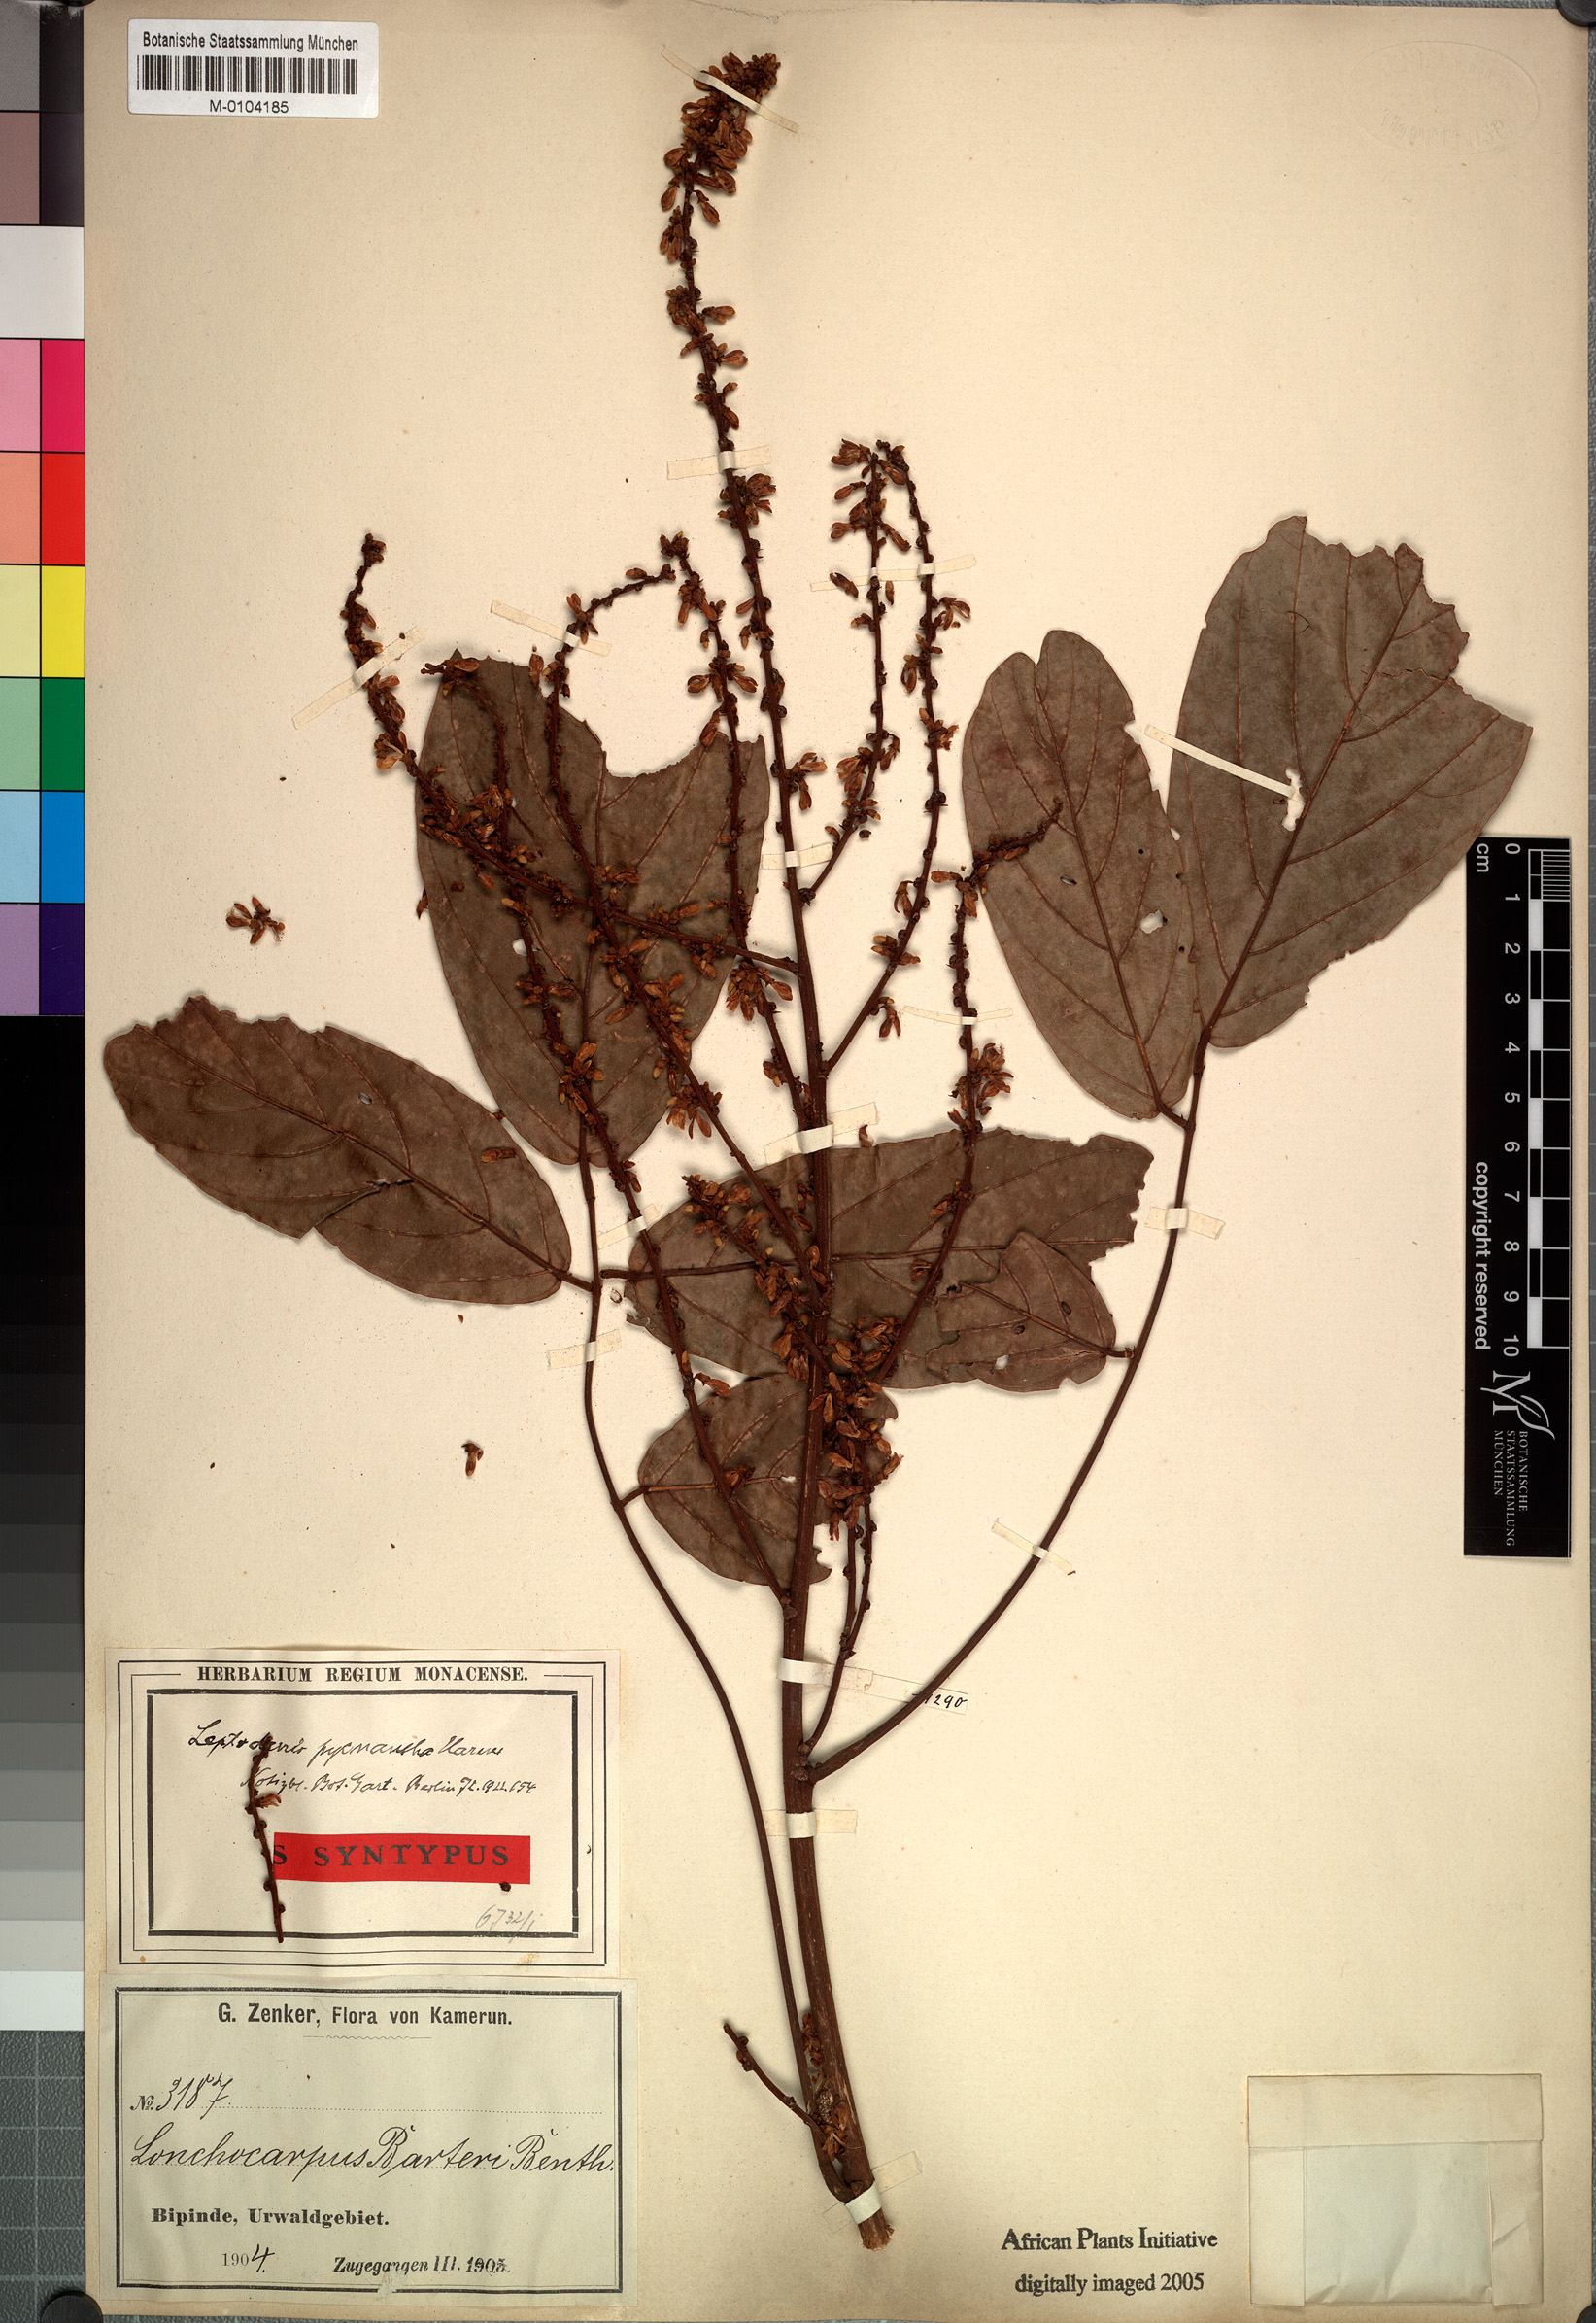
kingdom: Plantae
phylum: Tracheophyta
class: Magnoliopsida
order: Fabales
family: Fabaceae
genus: Leptoderris
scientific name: Leptoderris congolensis
